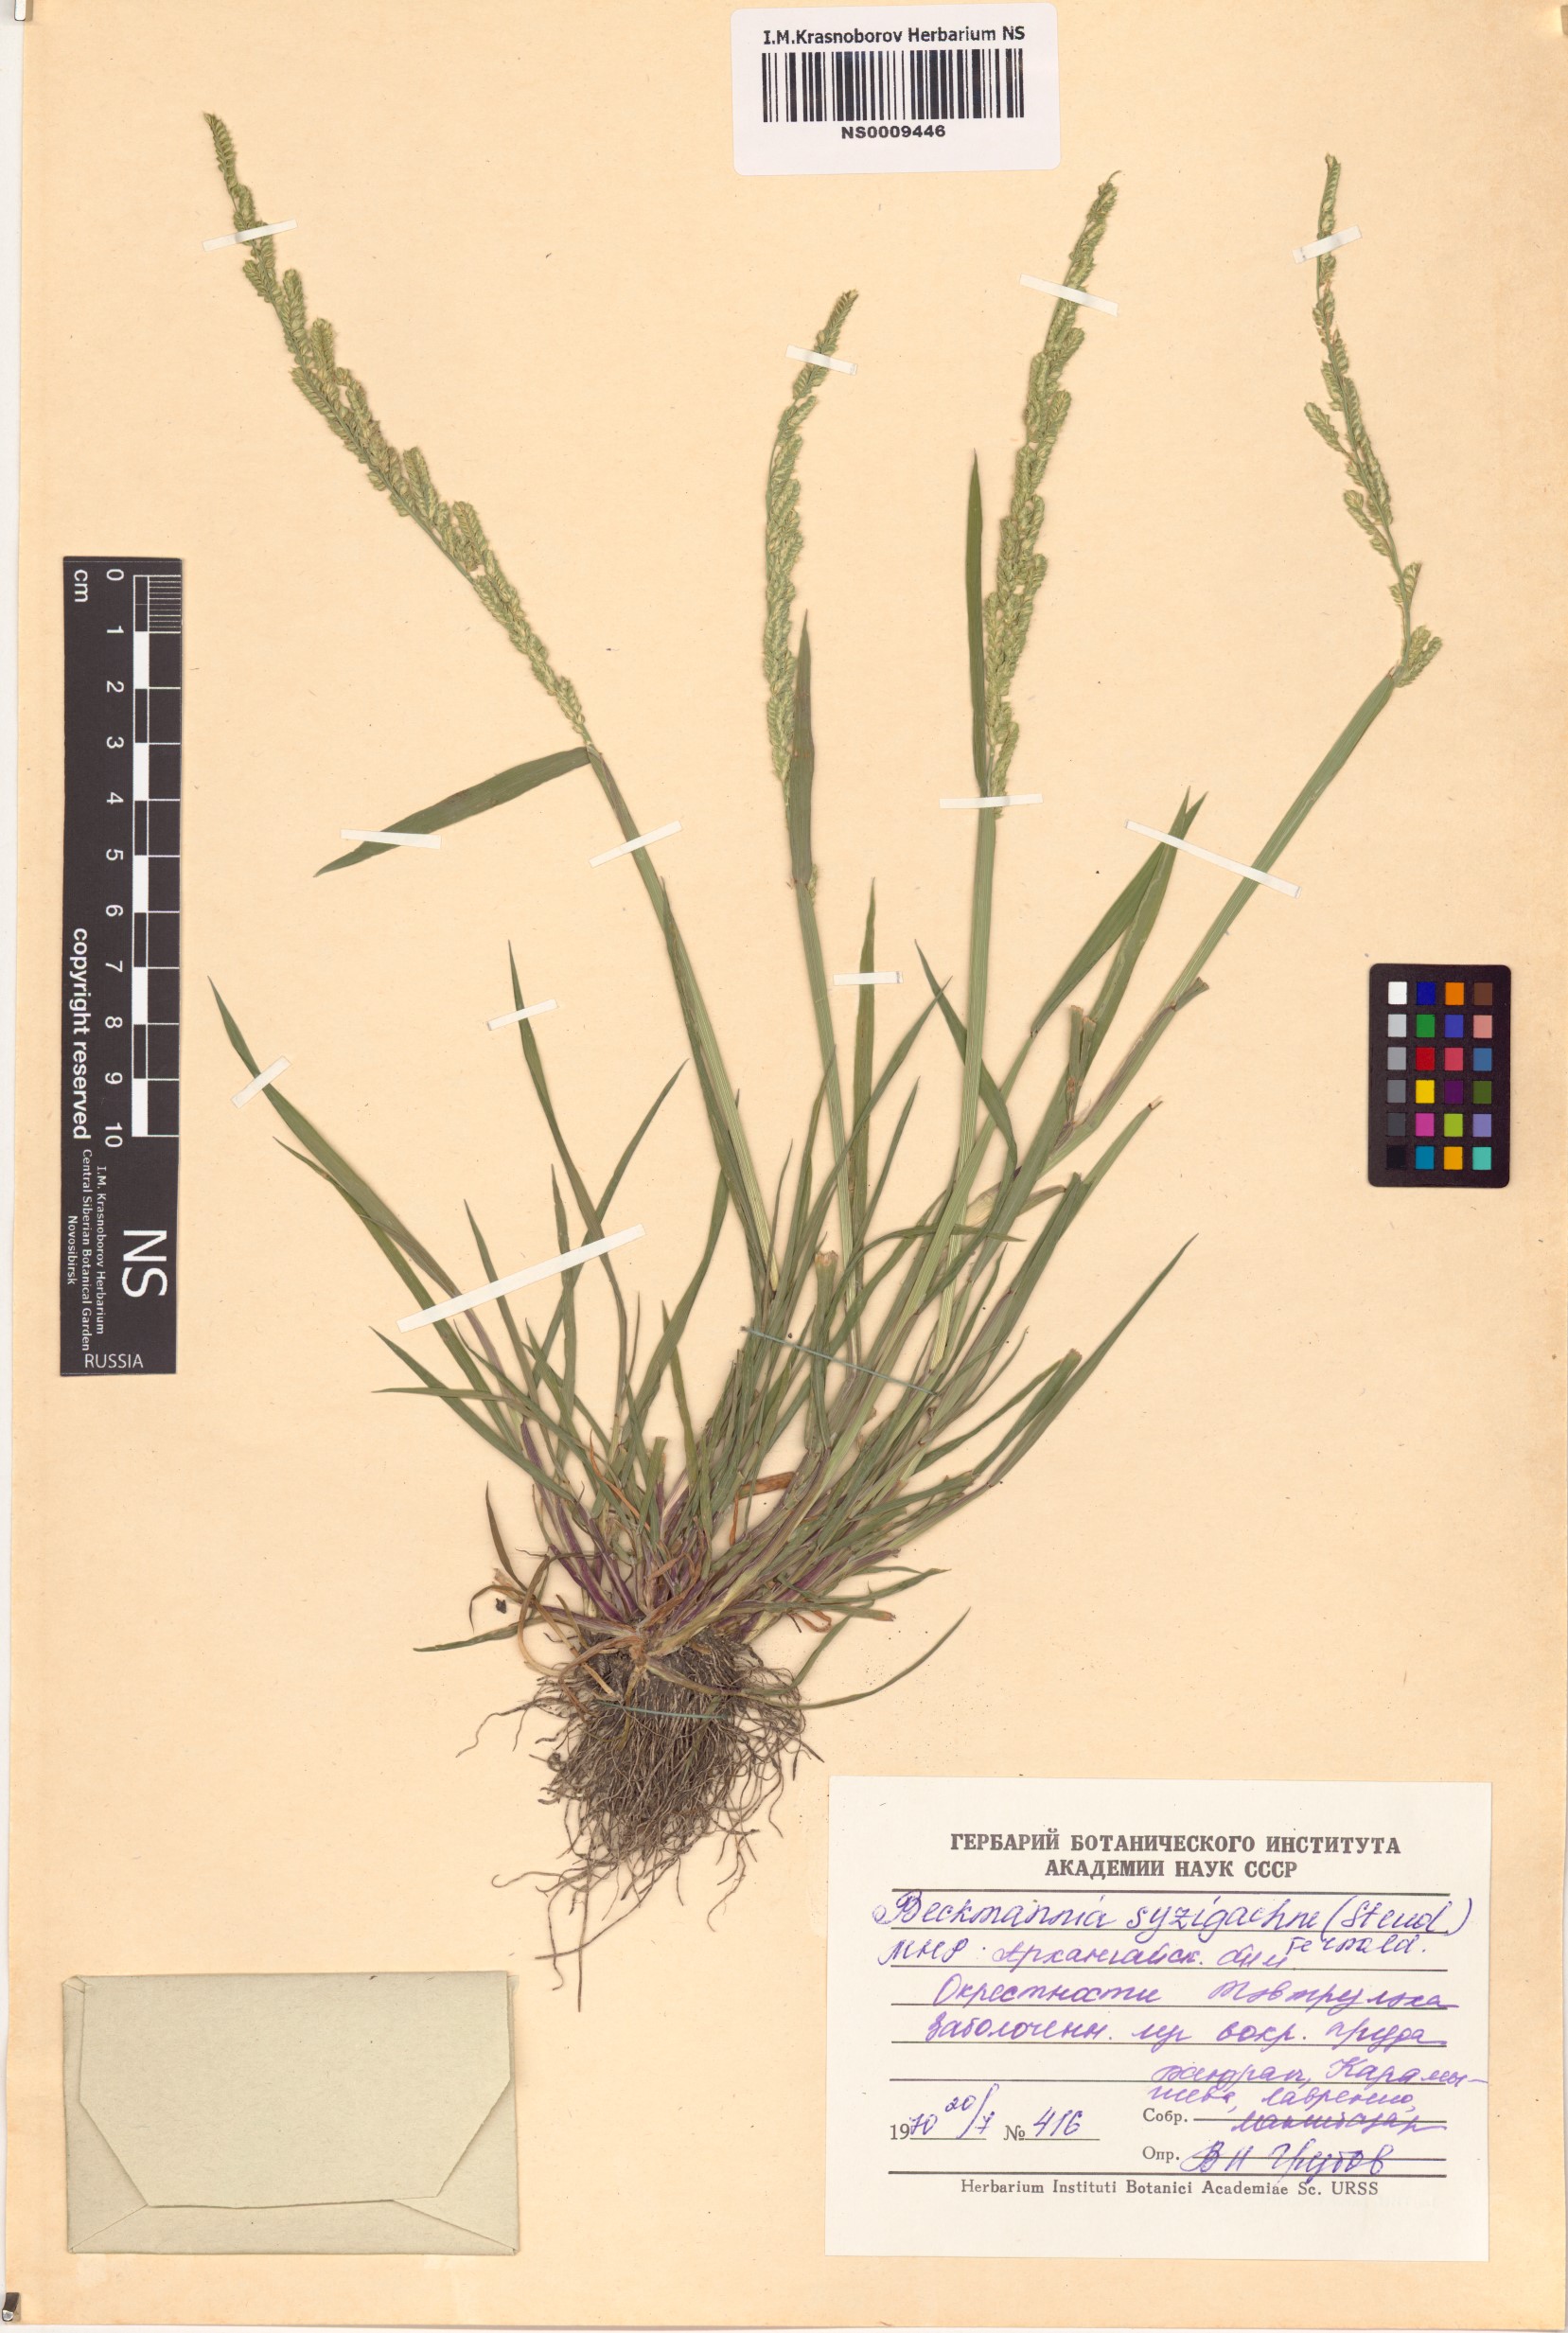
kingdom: Plantae
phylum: Tracheophyta
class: Liliopsida
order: Poales
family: Poaceae
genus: Beckmannia
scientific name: Beckmannia syzigachne
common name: American slough-grass
